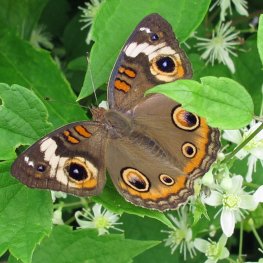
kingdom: Animalia
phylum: Arthropoda
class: Insecta
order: Lepidoptera
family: Nymphalidae
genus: Junonia
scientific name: Junonia coenia
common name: Common Buckeye
